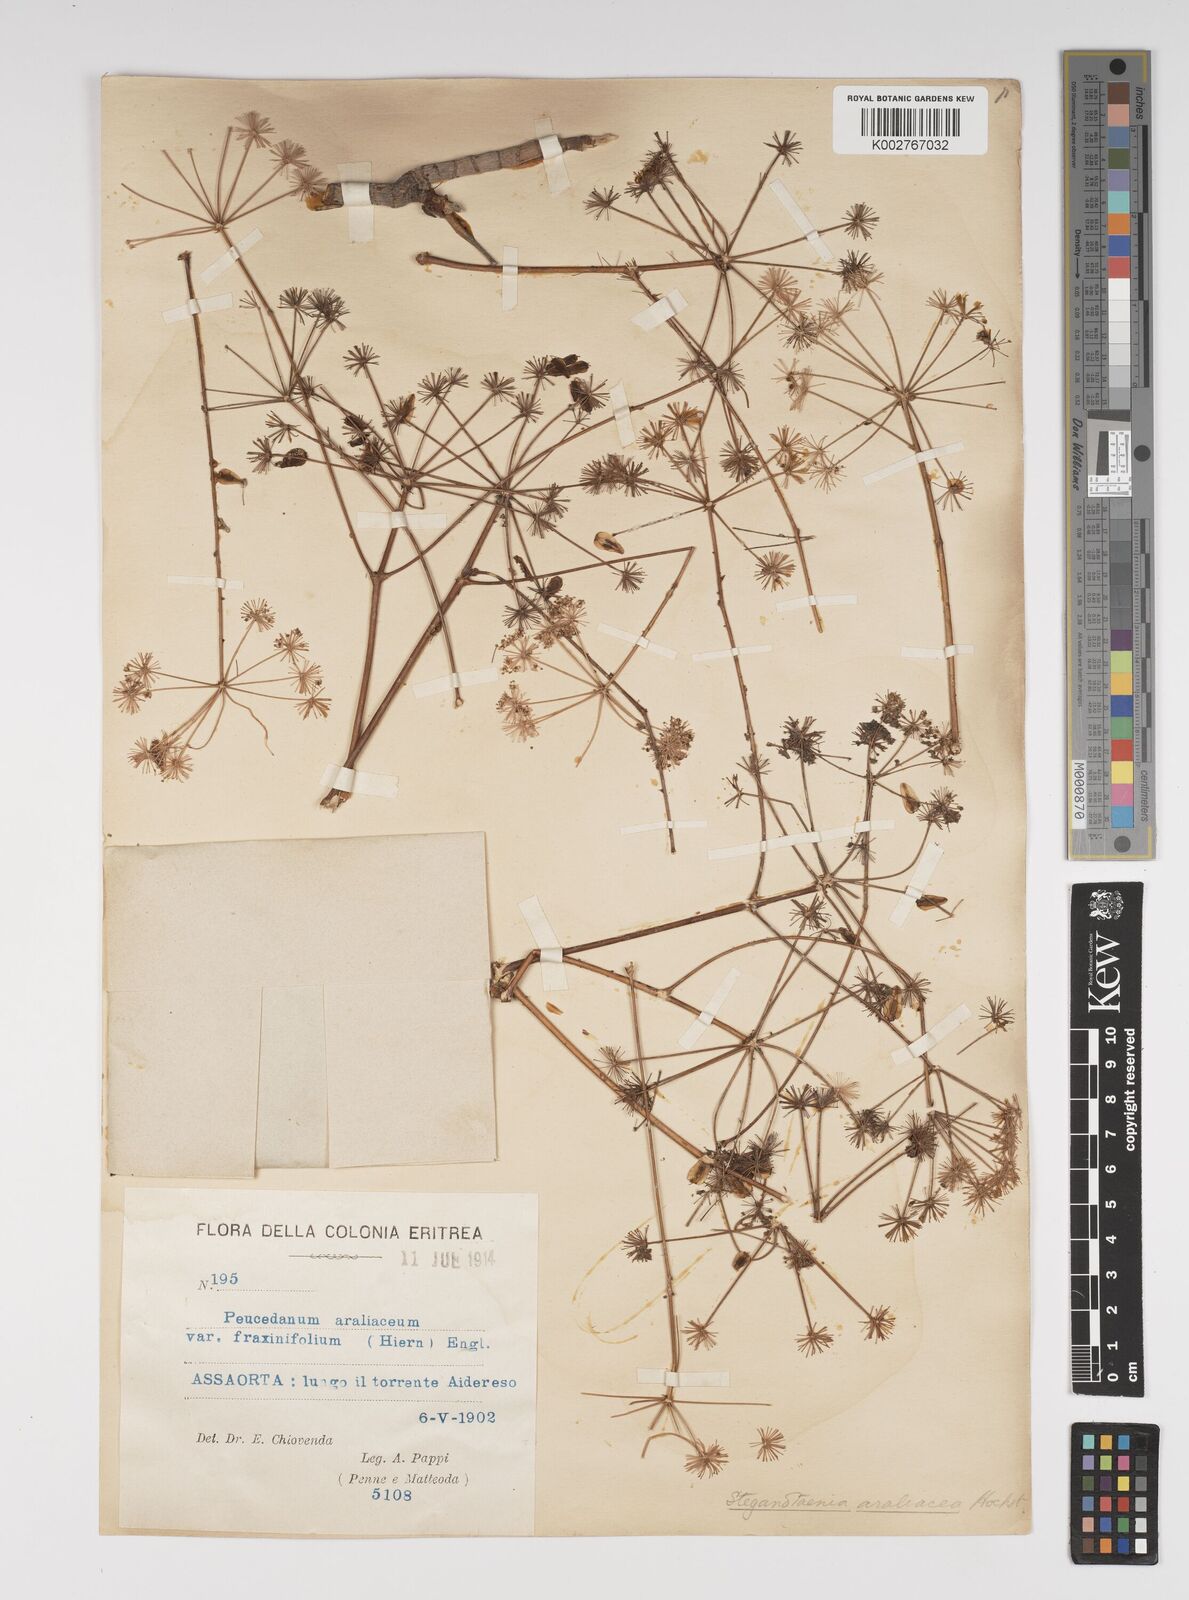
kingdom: Plantae
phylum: Tracheophyta
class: Magnoliopsida
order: Apiales
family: Apiaceae
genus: Steganotaenia
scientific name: Steganotaenia
